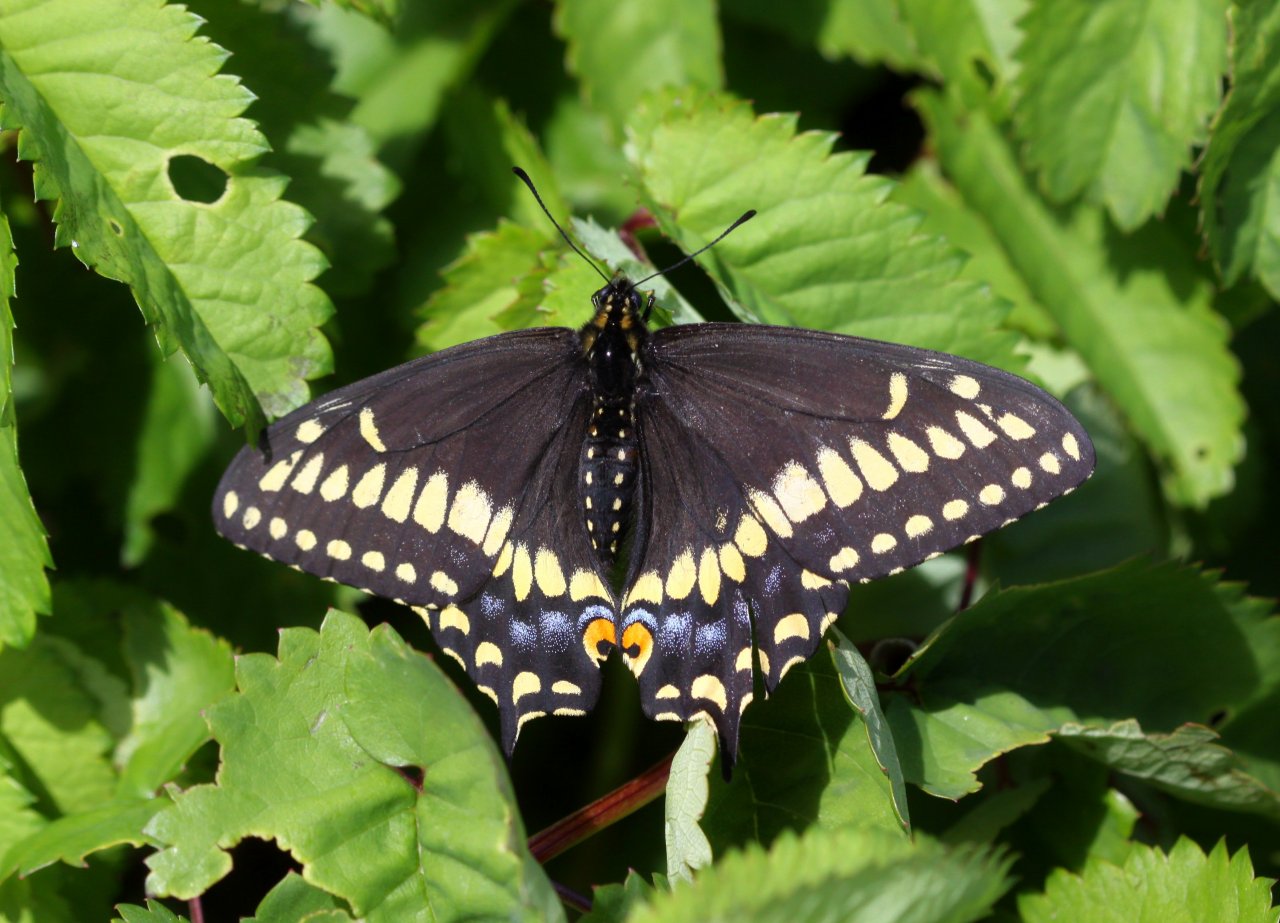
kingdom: Animalia
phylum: Arthropoda
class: Insecta
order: Lepidoptera
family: Papilionidae
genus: Papilio
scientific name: Papilio brevicauda
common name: Short-tailed Swallowtail
